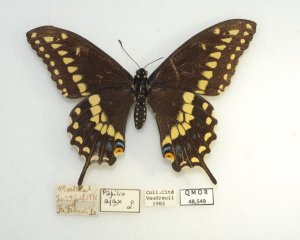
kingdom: Animalia
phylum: Arthropoda
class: Insecta
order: Lepidoptera
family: Papilionidae
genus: Papilio
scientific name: Papilio polyxenes
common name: Black Swallowtail
